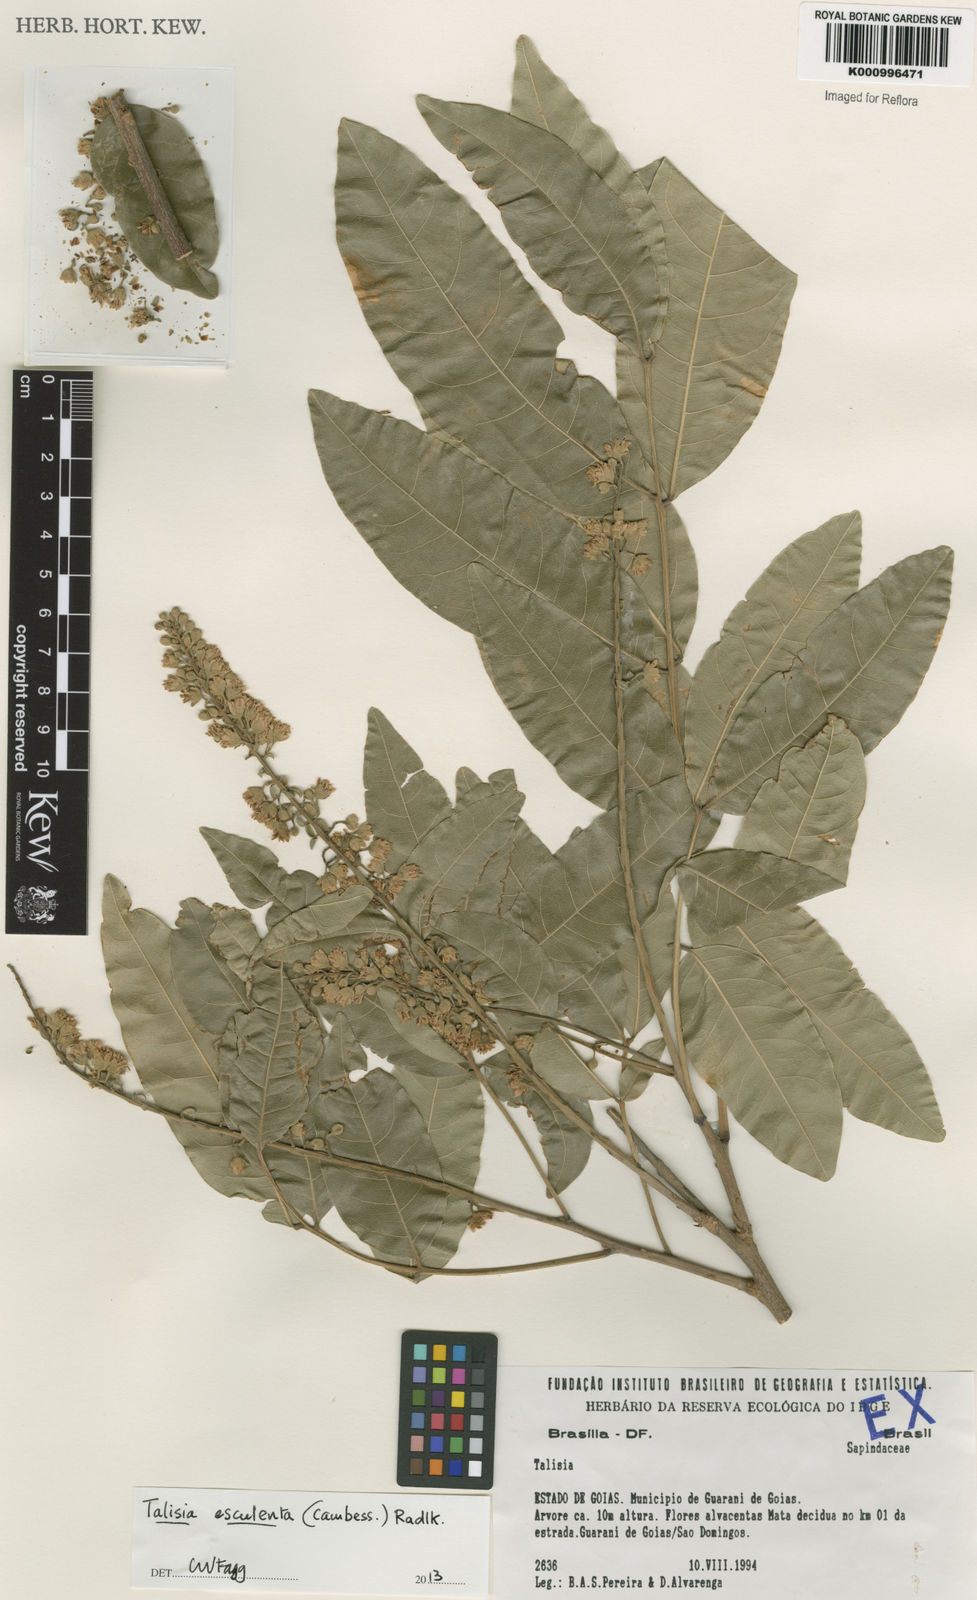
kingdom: Plantae
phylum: Tracheophyta
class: Magnoliopsida
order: Sapindales
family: Sapindaceae
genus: Talisia
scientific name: Talisia
